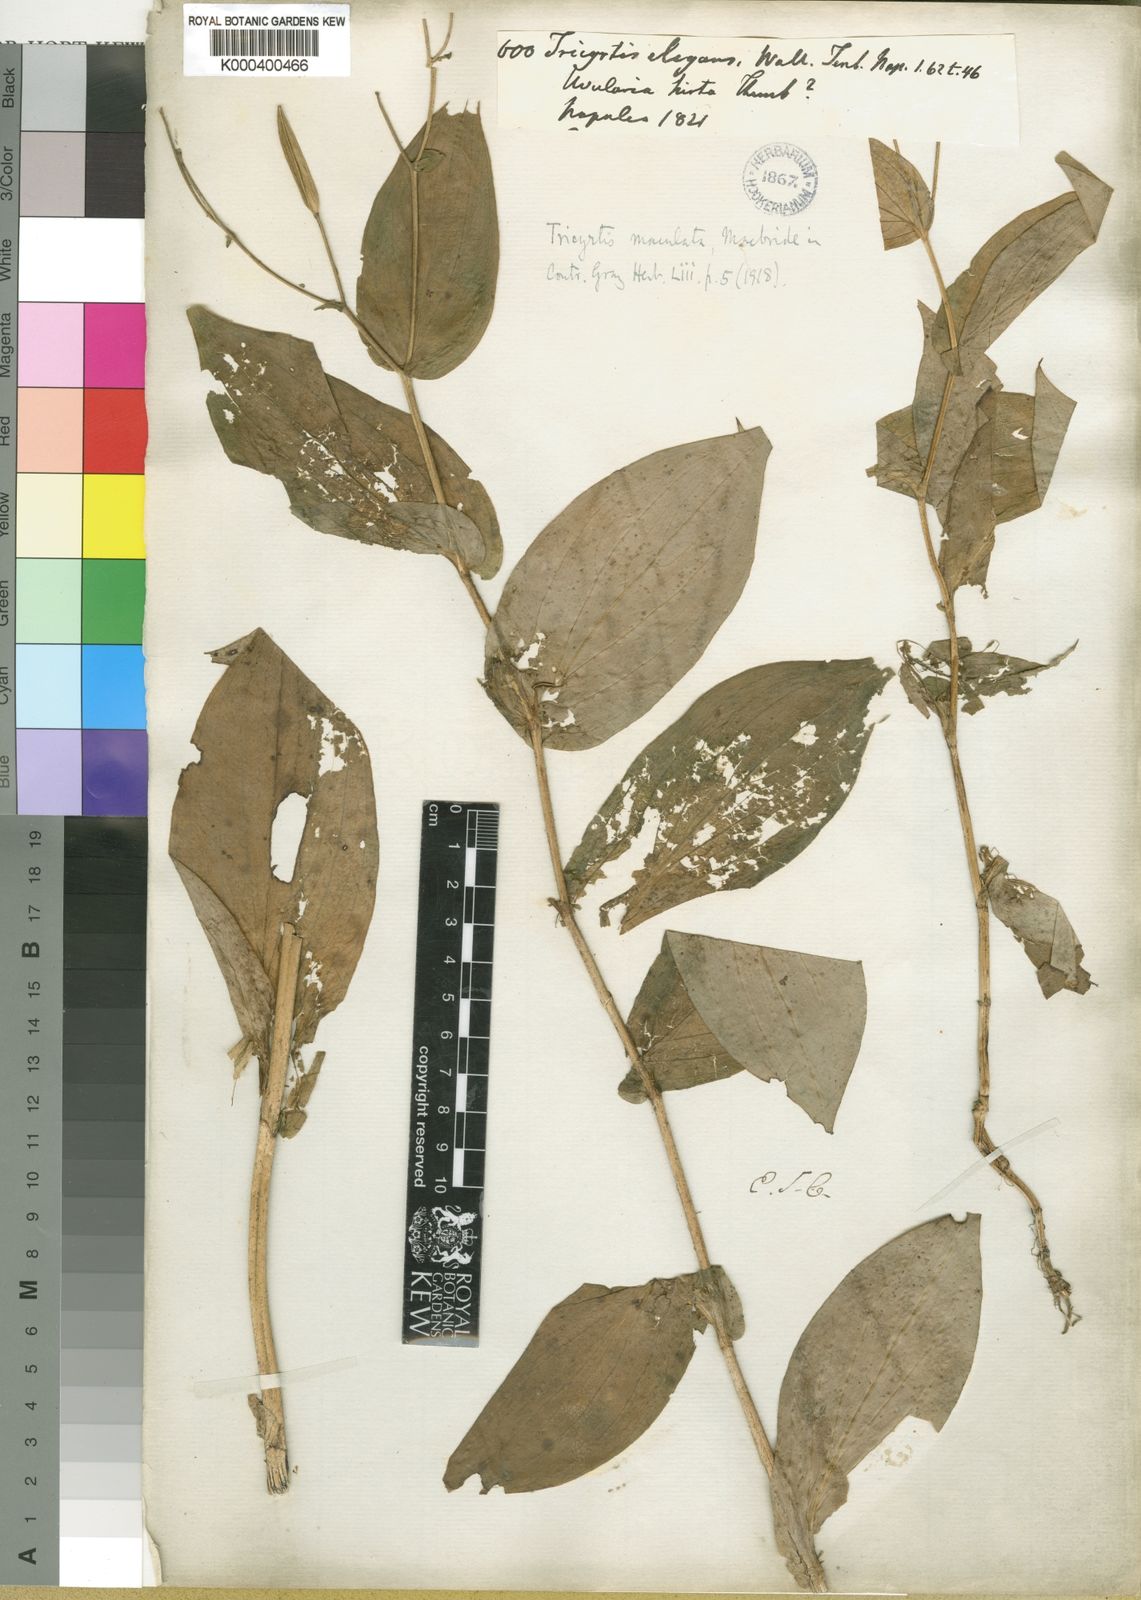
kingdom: Plantae
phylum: Tracheophyta
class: Liliopsida
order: Liliales
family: Liliaceae
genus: Tricyrtis
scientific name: Tricyrtis maculata
